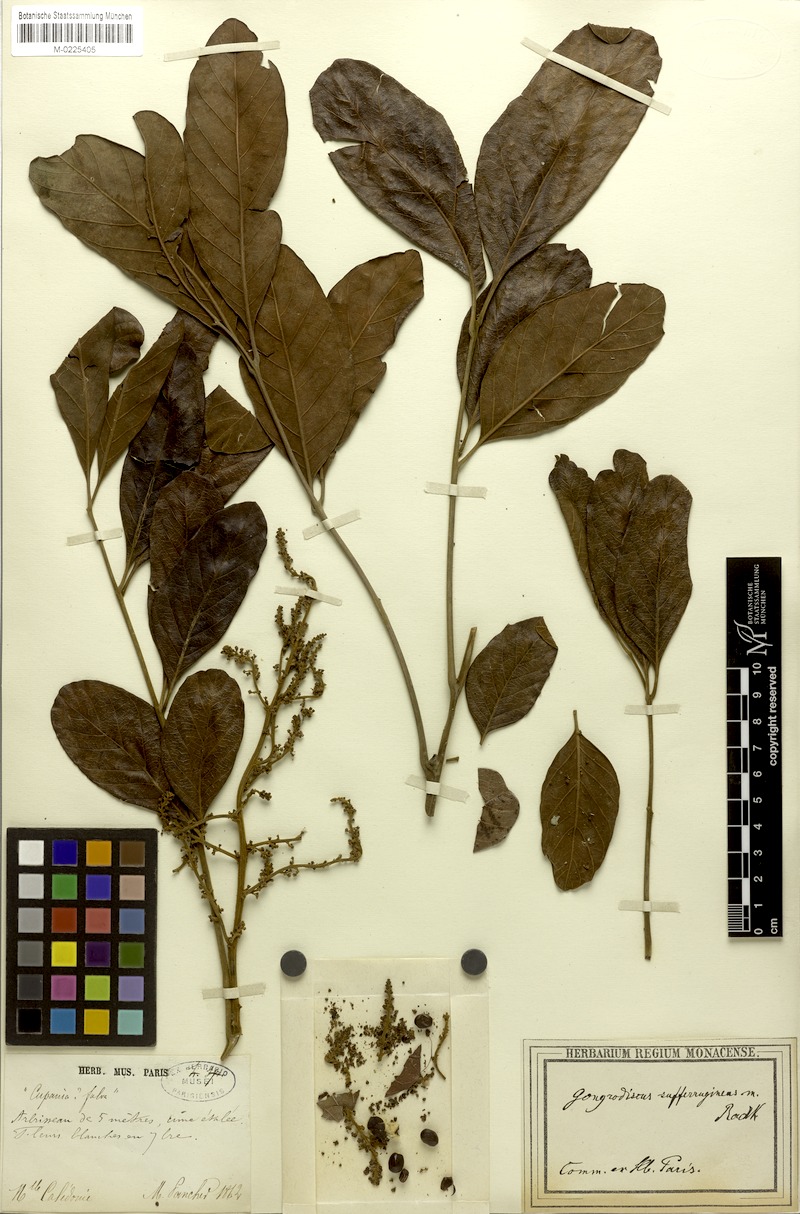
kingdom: Plantae
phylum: Tracheophyta
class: Magnoliopsida
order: Sapindales
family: Sapindaceae
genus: Gongrodiscus
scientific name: Gongrodiscus sufferrugineus
